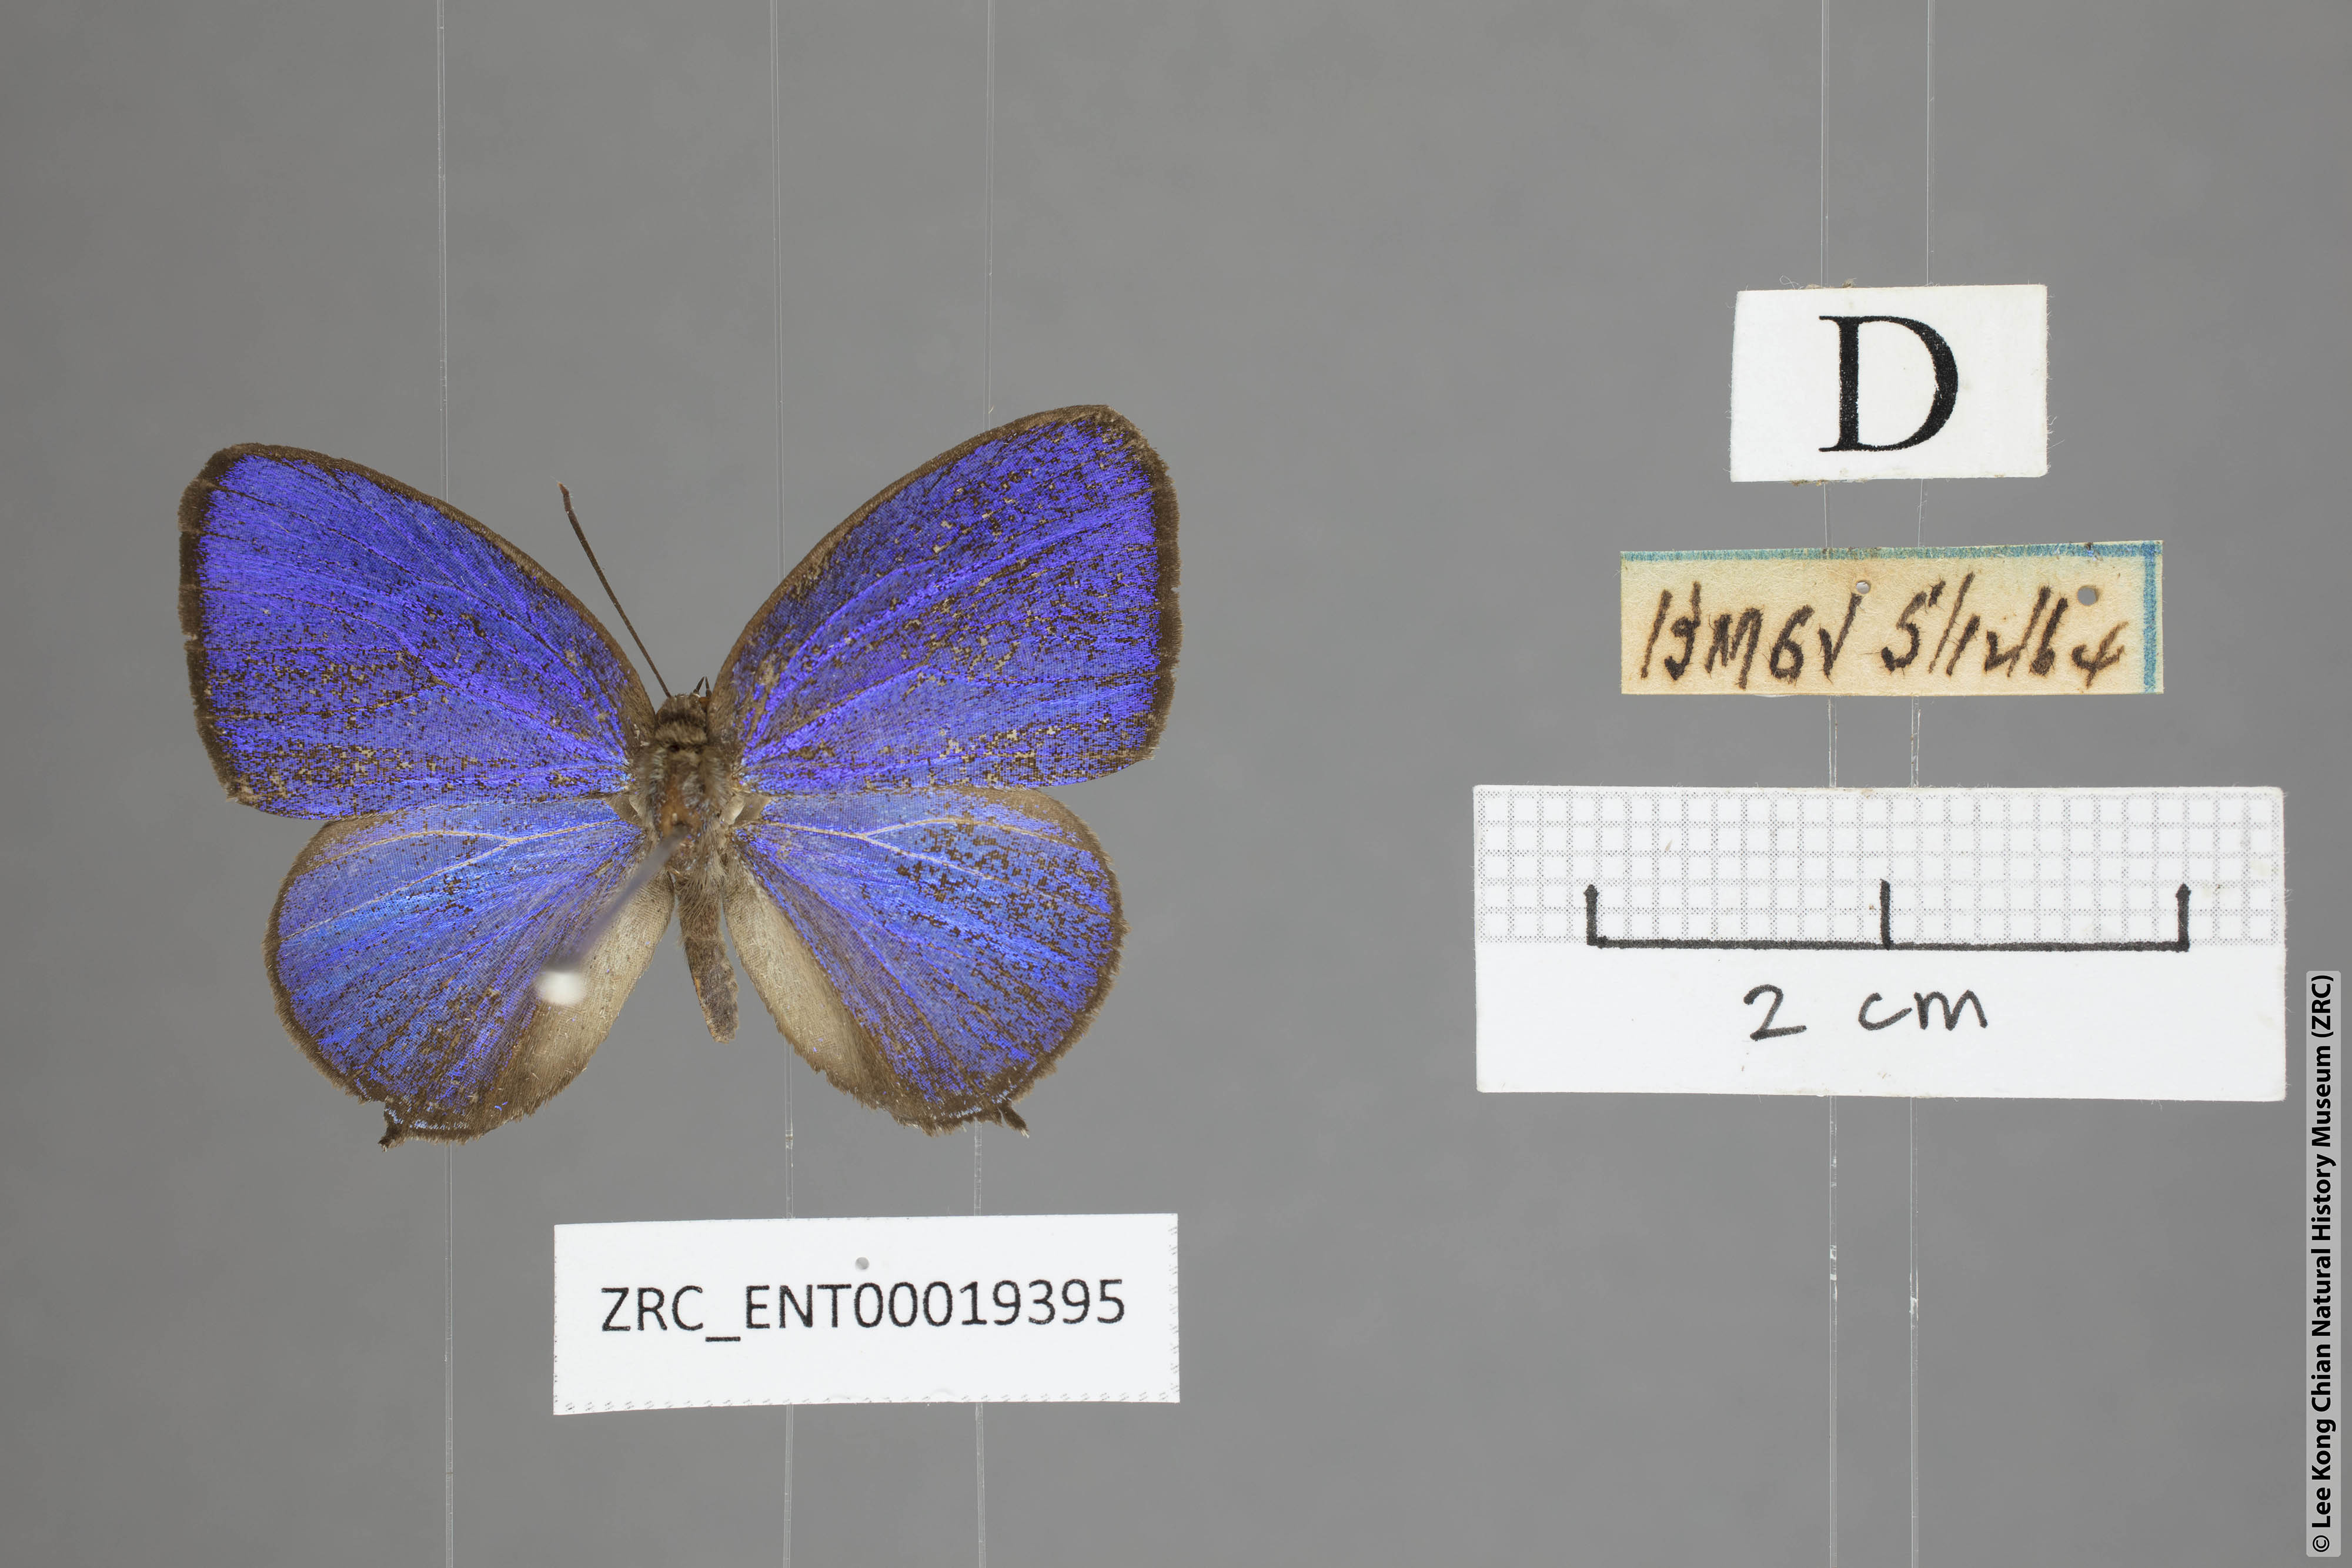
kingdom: Animalia
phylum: Arthropoda
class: Insecta
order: Lepidoptera
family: Lycaenidae
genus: Arhopala
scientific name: Arhopala democritus
